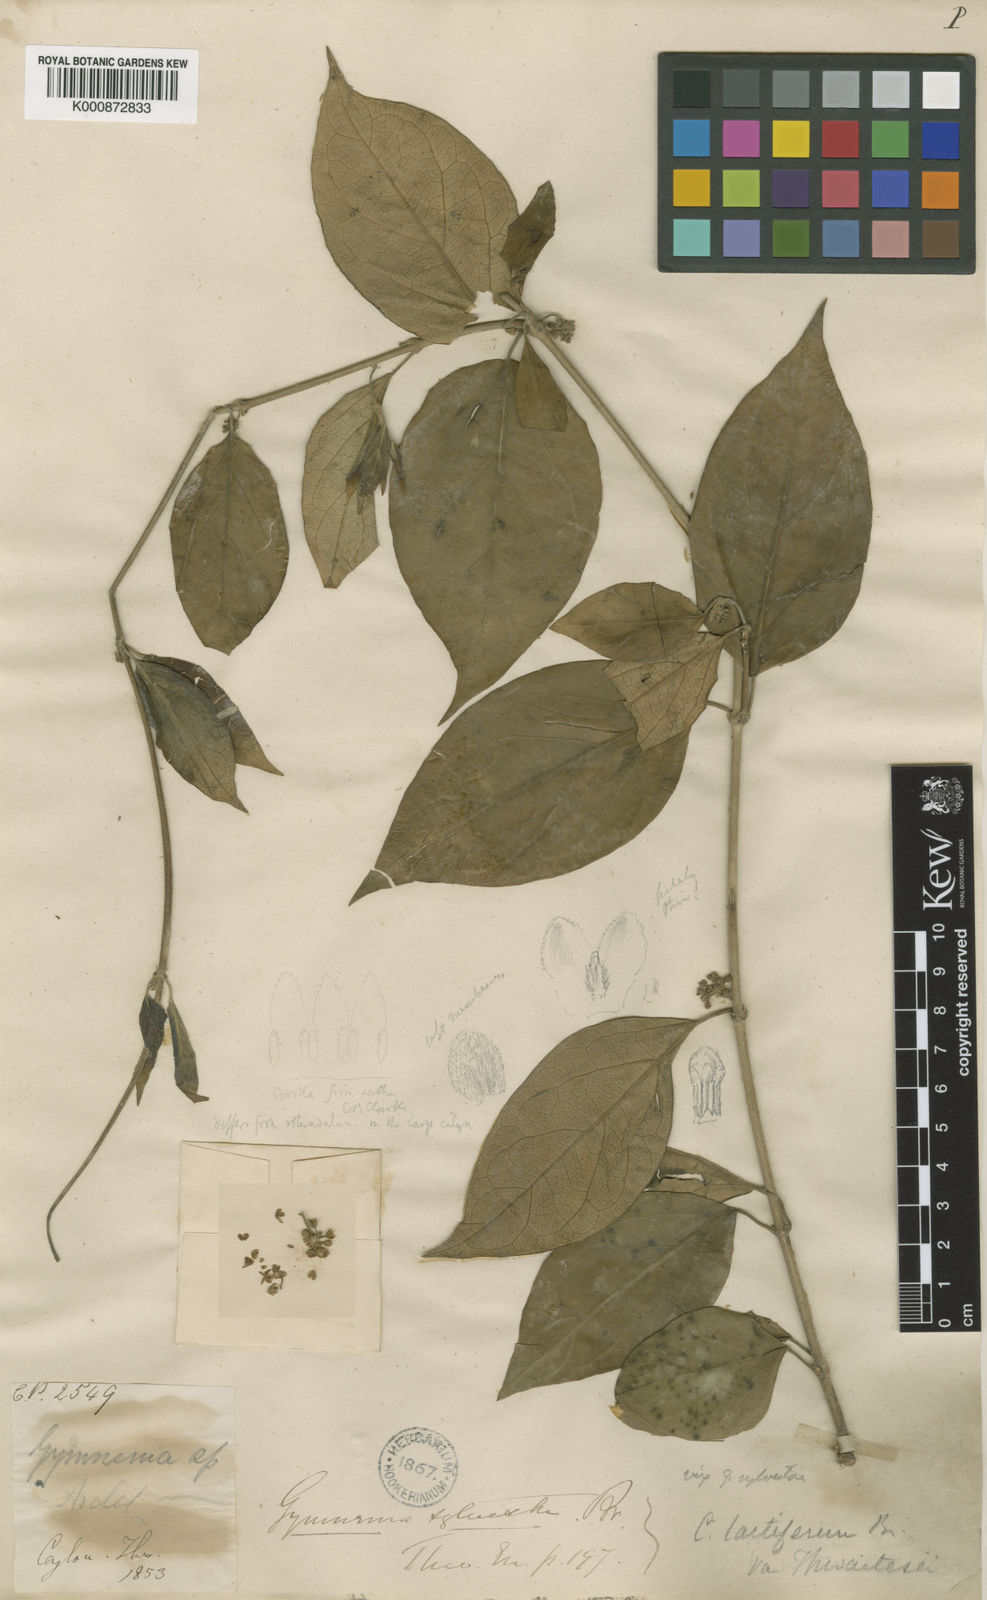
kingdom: Plantae
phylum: Tracheophyta
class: Magnoliopsida
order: Gentianales
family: Apocynaceae
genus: Gymnema
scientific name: Gymnema
